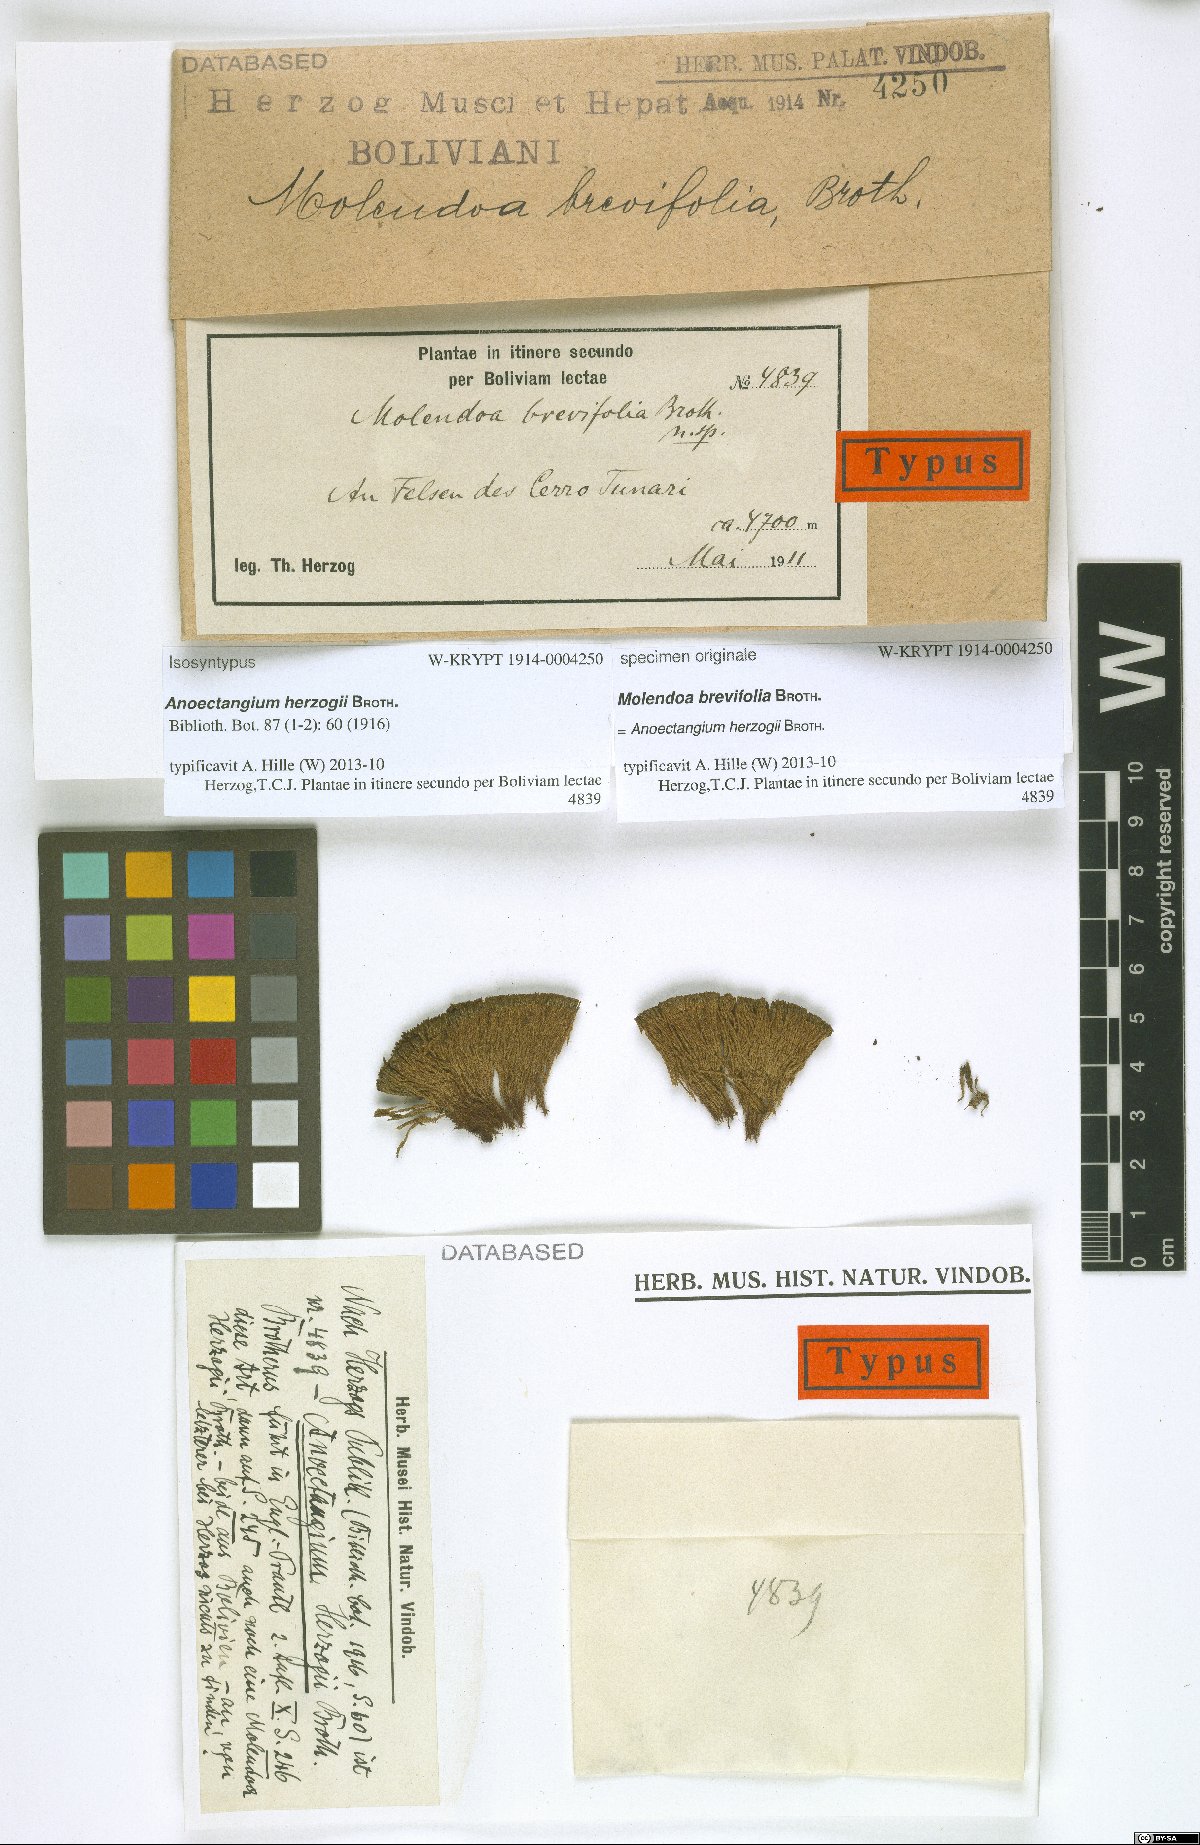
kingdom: Plantae
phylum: Bryophyta
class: Bryopsida
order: Pottiales
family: Pottiaceae
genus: Molendoa
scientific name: Molendoa peruviana
